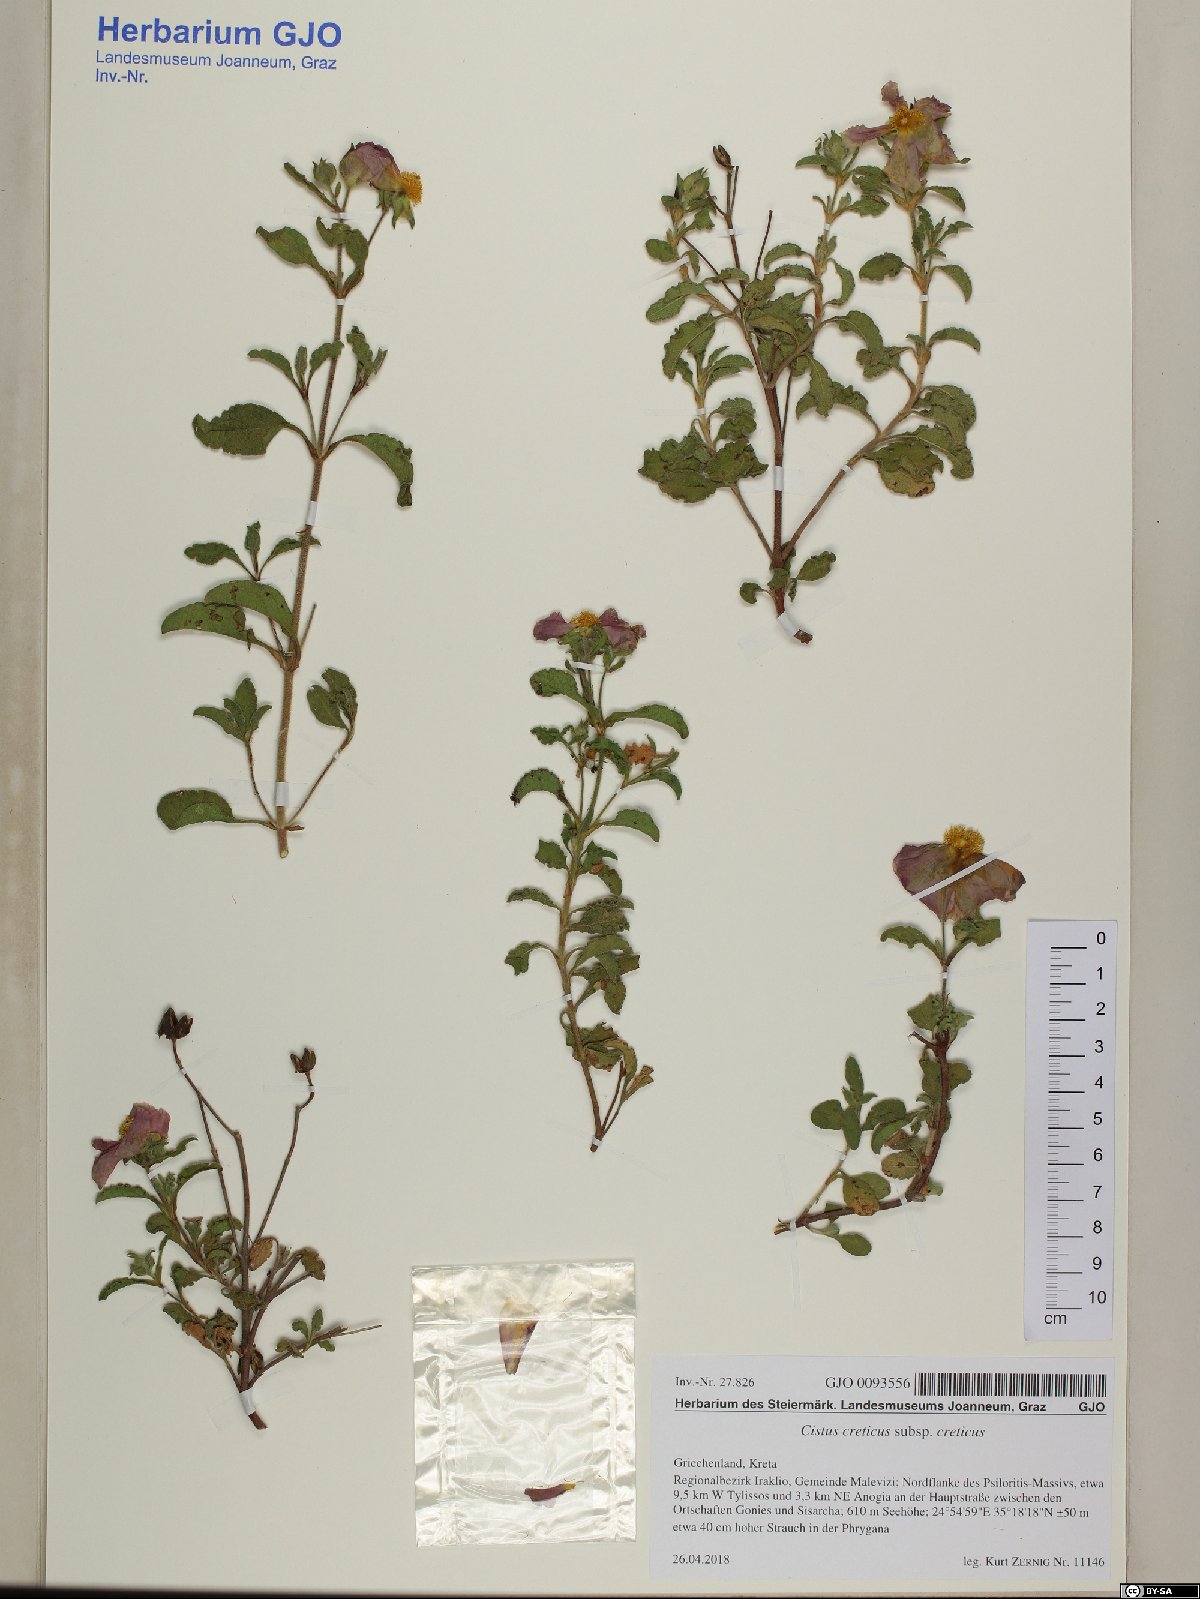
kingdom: Plantae
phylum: Tracheophyta
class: Magnoliopsida
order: Malvales
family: Cistaceae
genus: Cistus
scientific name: Cistus creticus
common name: Cretan rockrose
